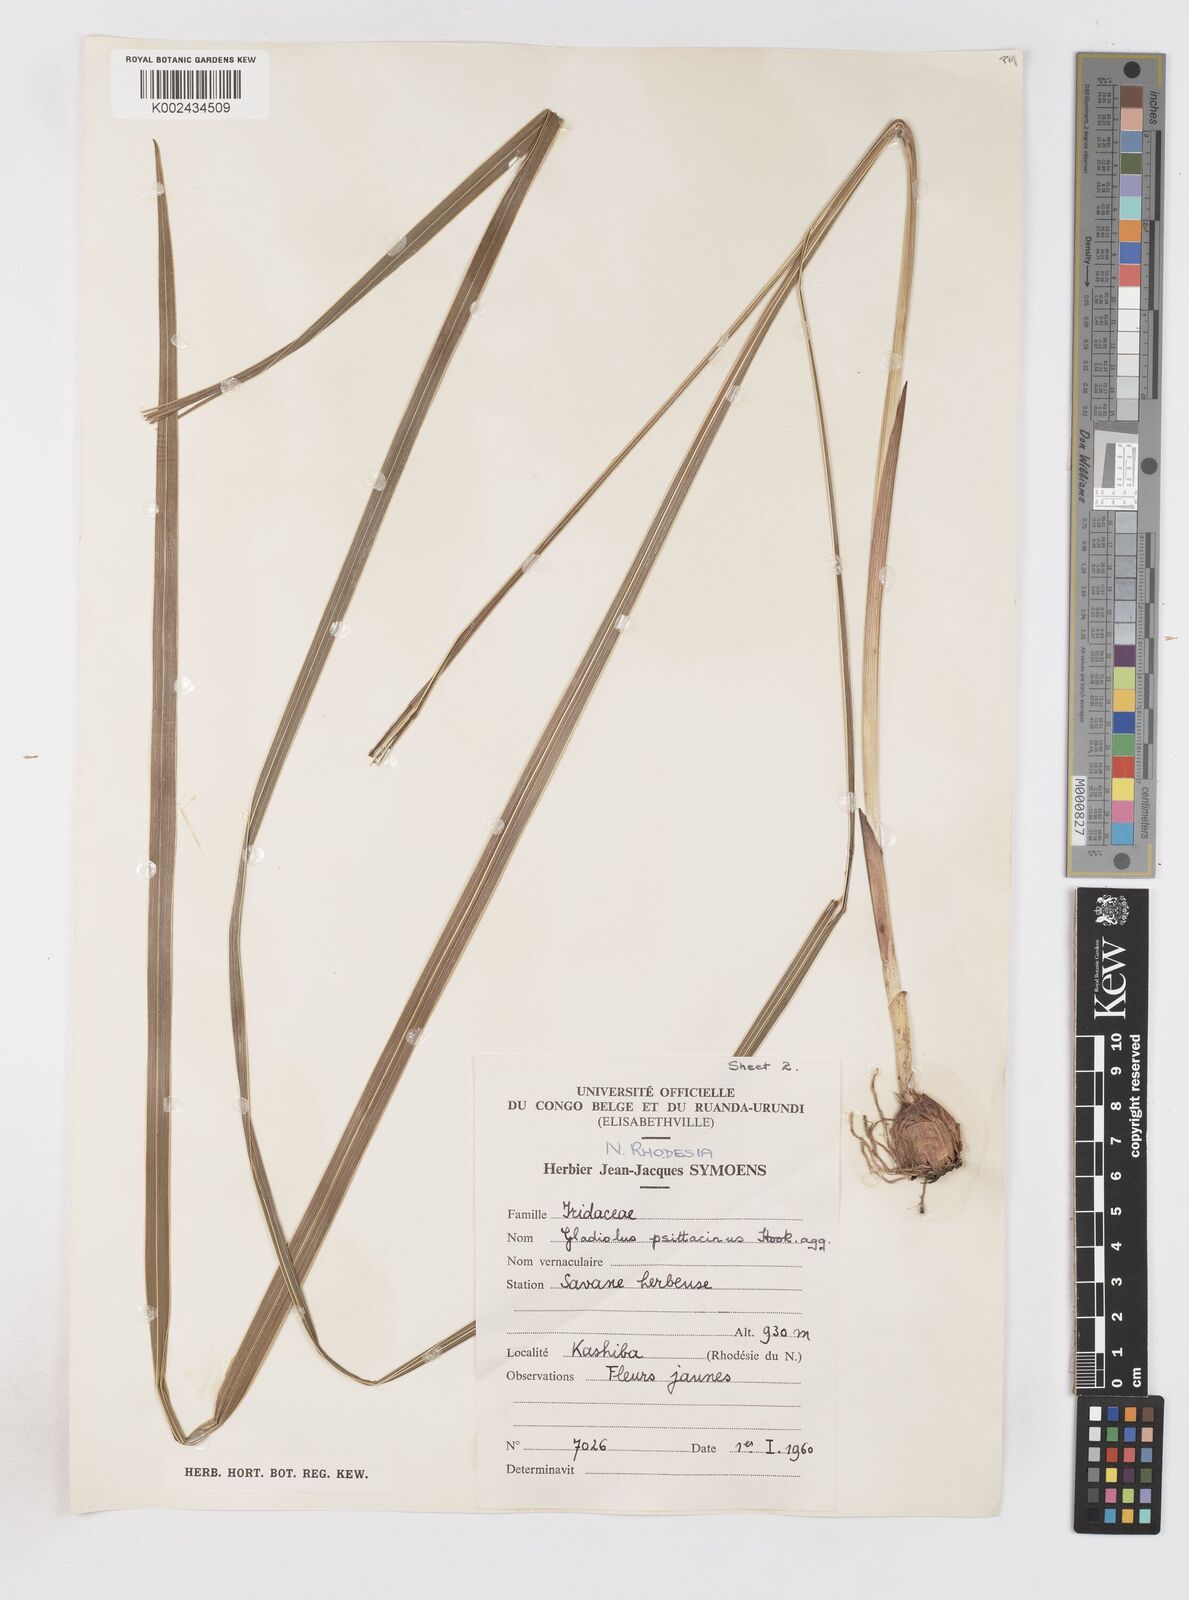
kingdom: Plantae
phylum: Tracheophyta
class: Liliopsida
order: Asparagales
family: Iridaceae
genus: Gladiolus
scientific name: Gladiolus dalenii
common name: Cornflag
